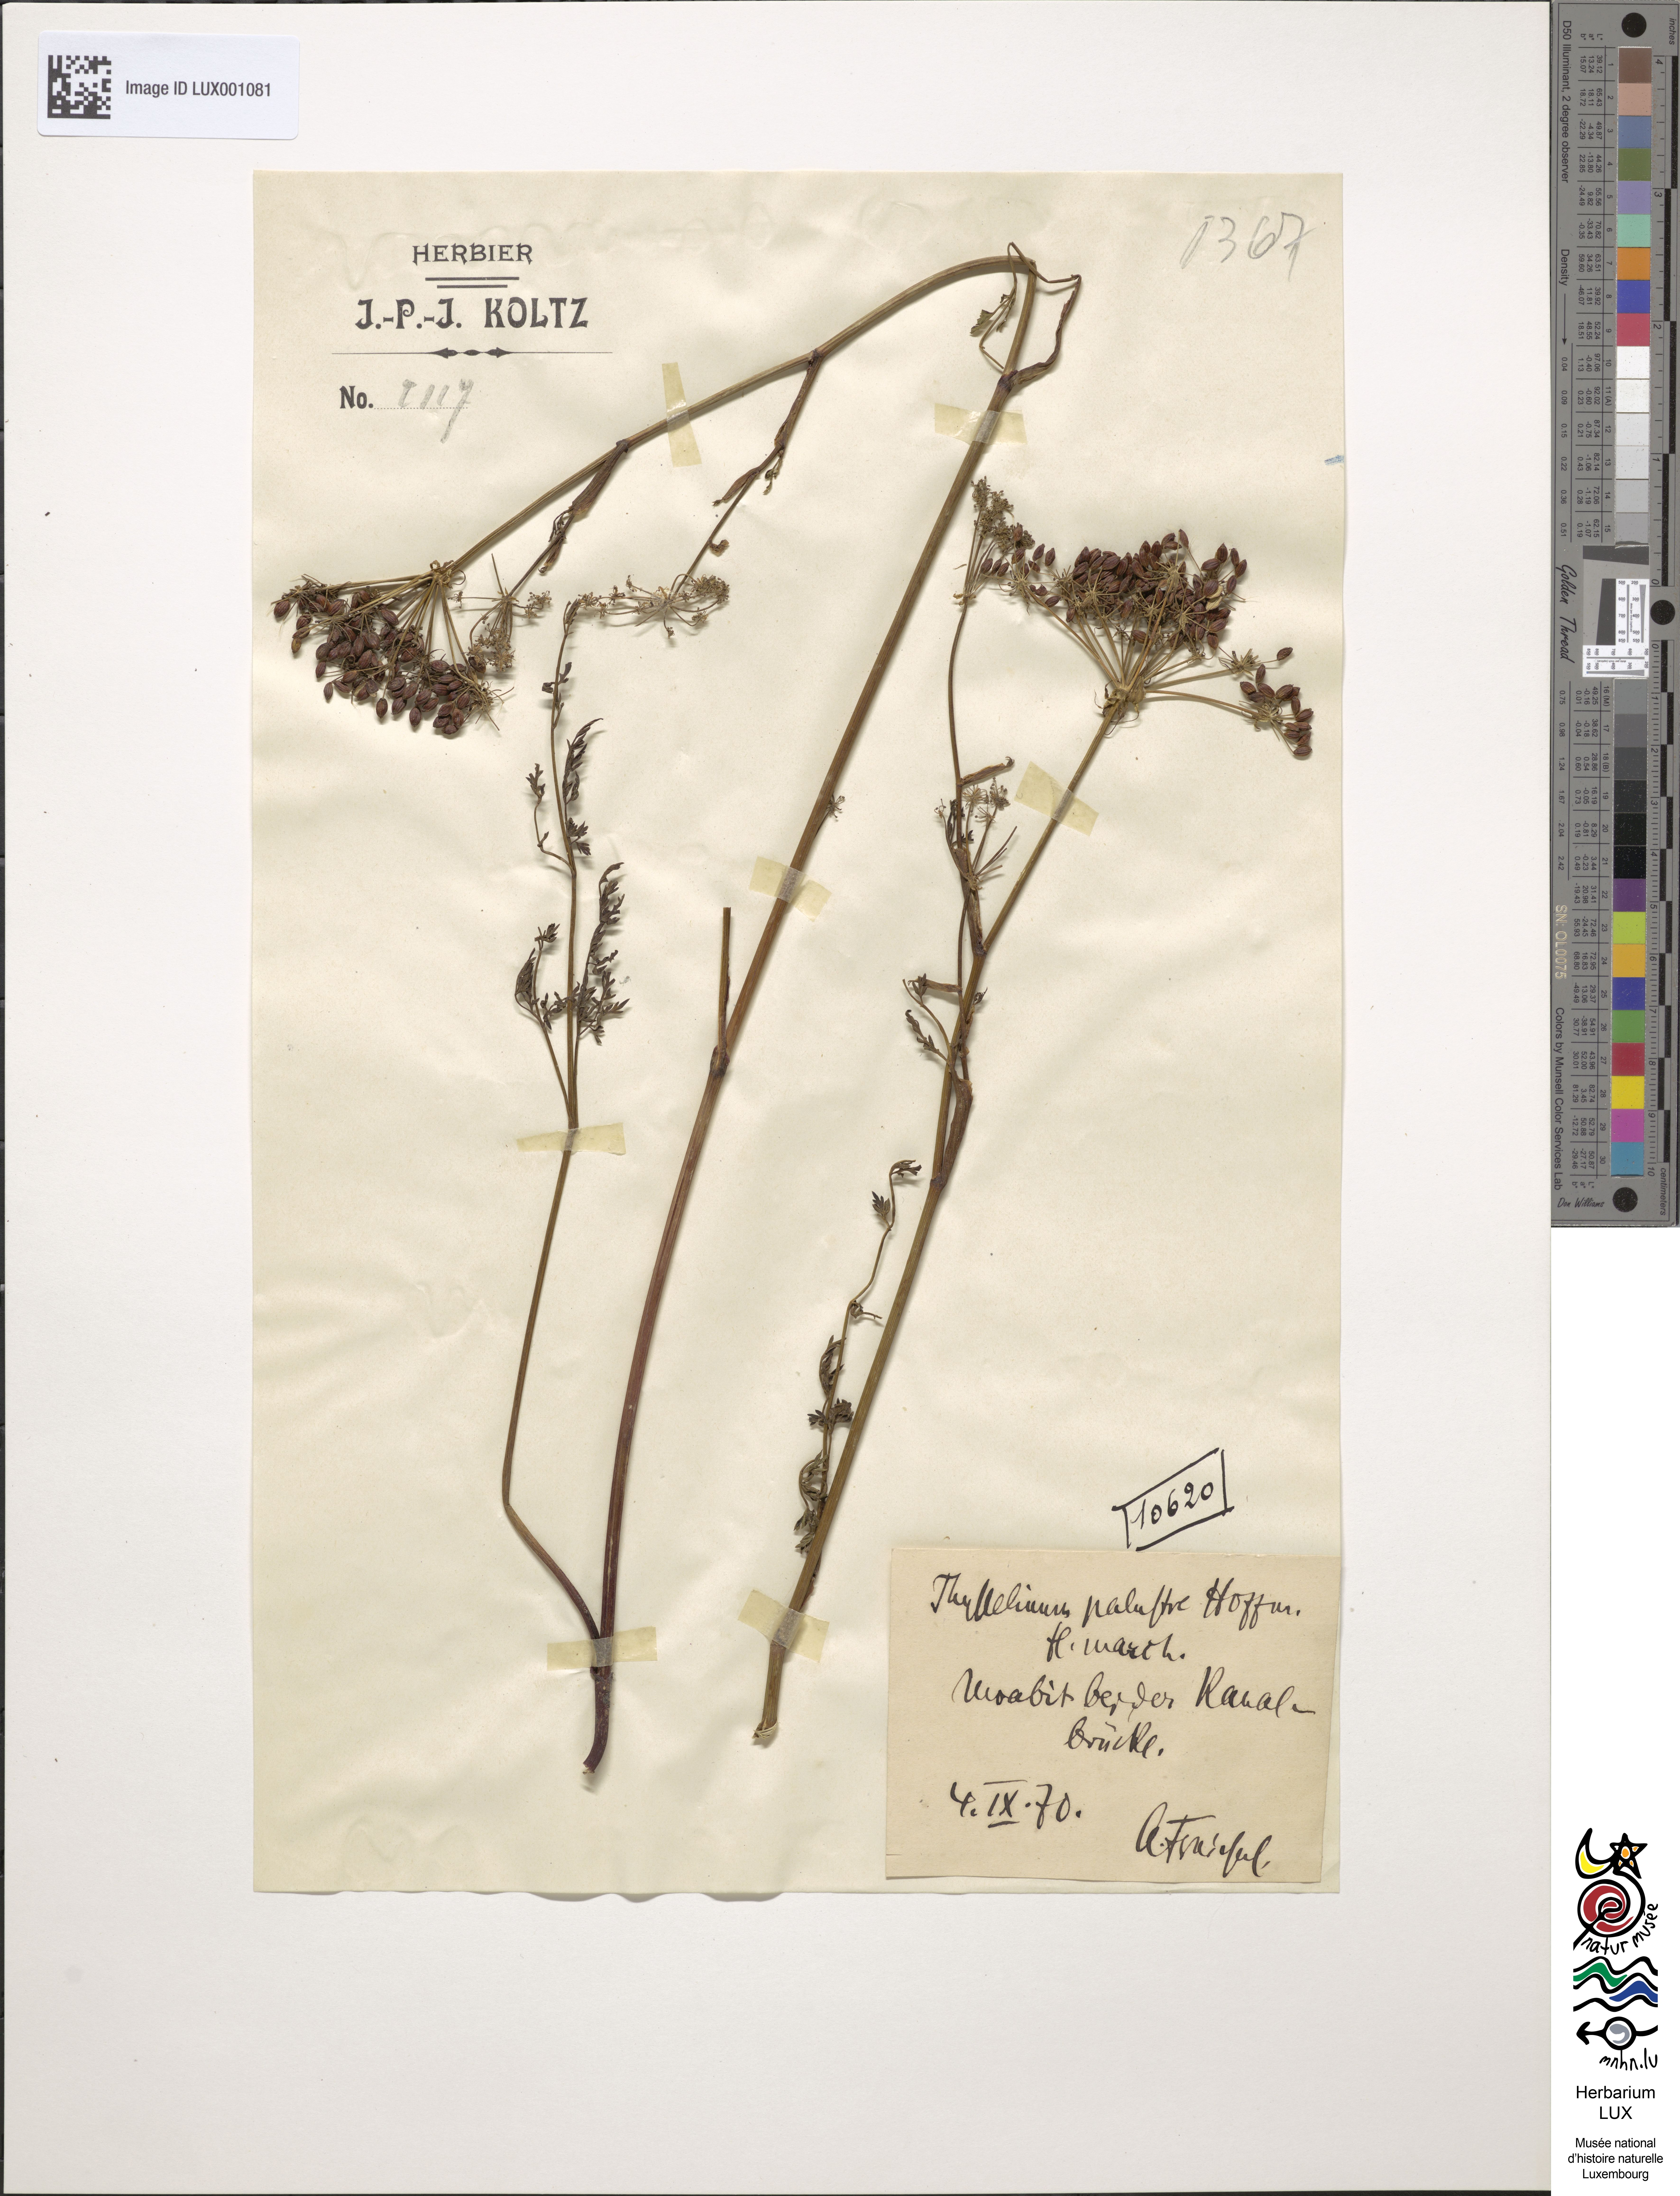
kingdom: Plantae
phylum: Tracheophyta
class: Magnoliopsida
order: Apiales
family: Apiaceae
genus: Thysselinum
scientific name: Thysselinum palustre
